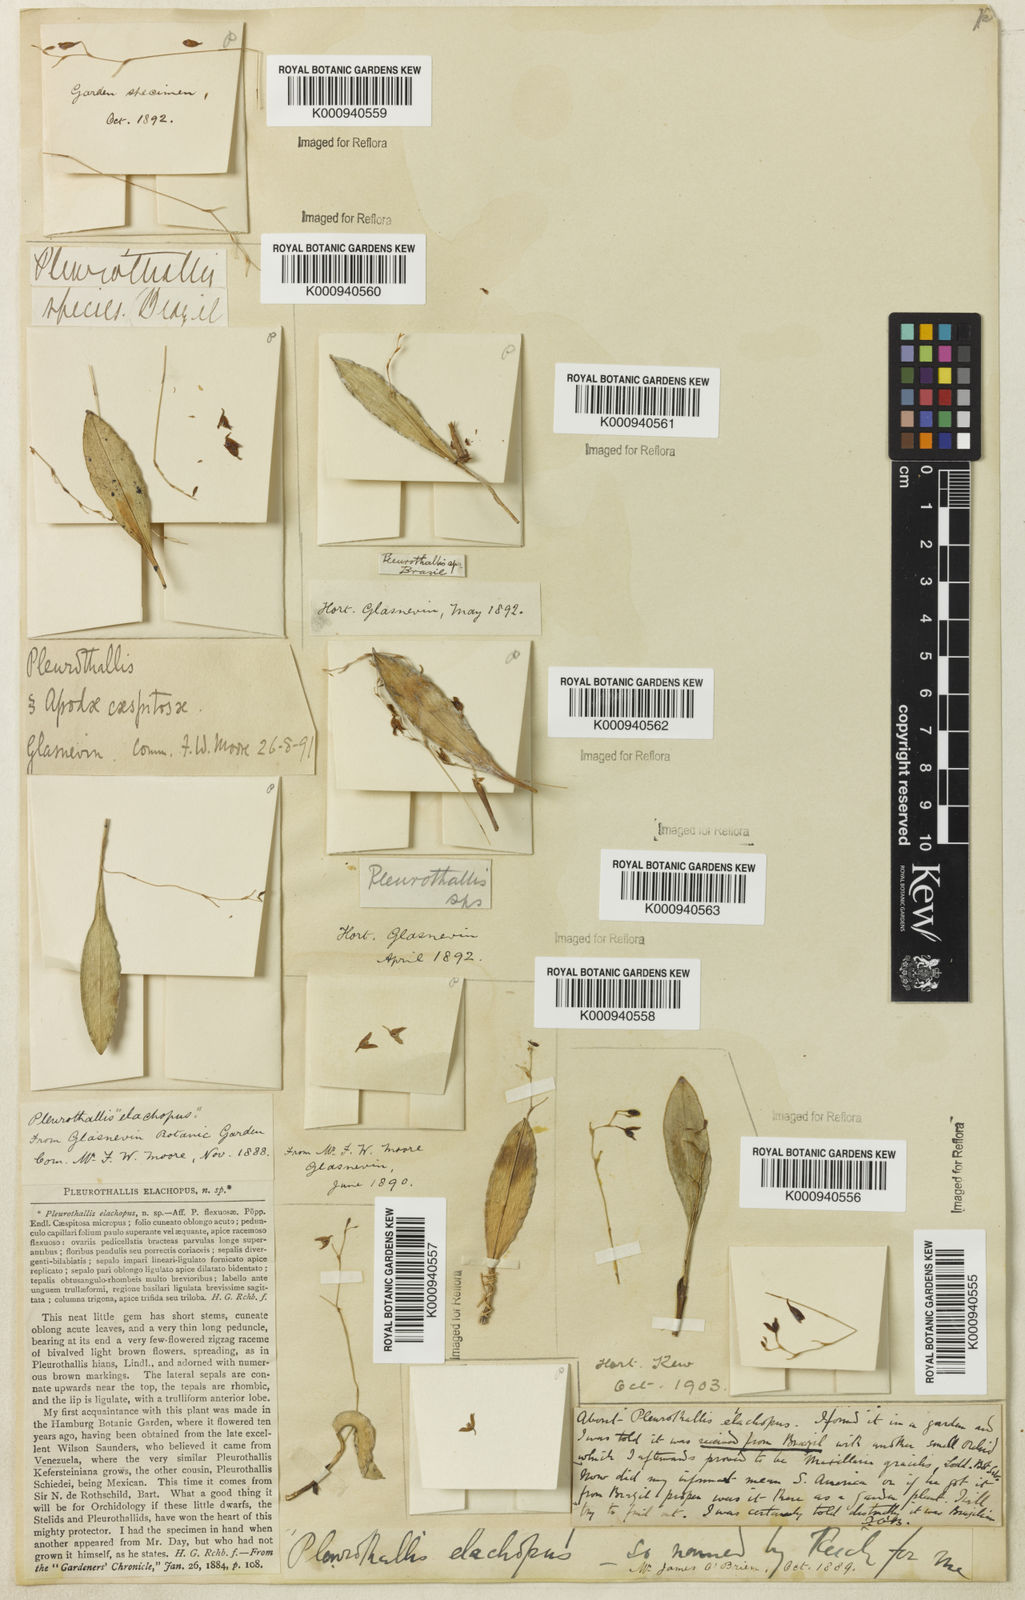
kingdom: Plantae
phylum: Tracheophyta
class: Liliopsida
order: Asparagales
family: Orchidaceae
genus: Stelis
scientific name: Stelis
